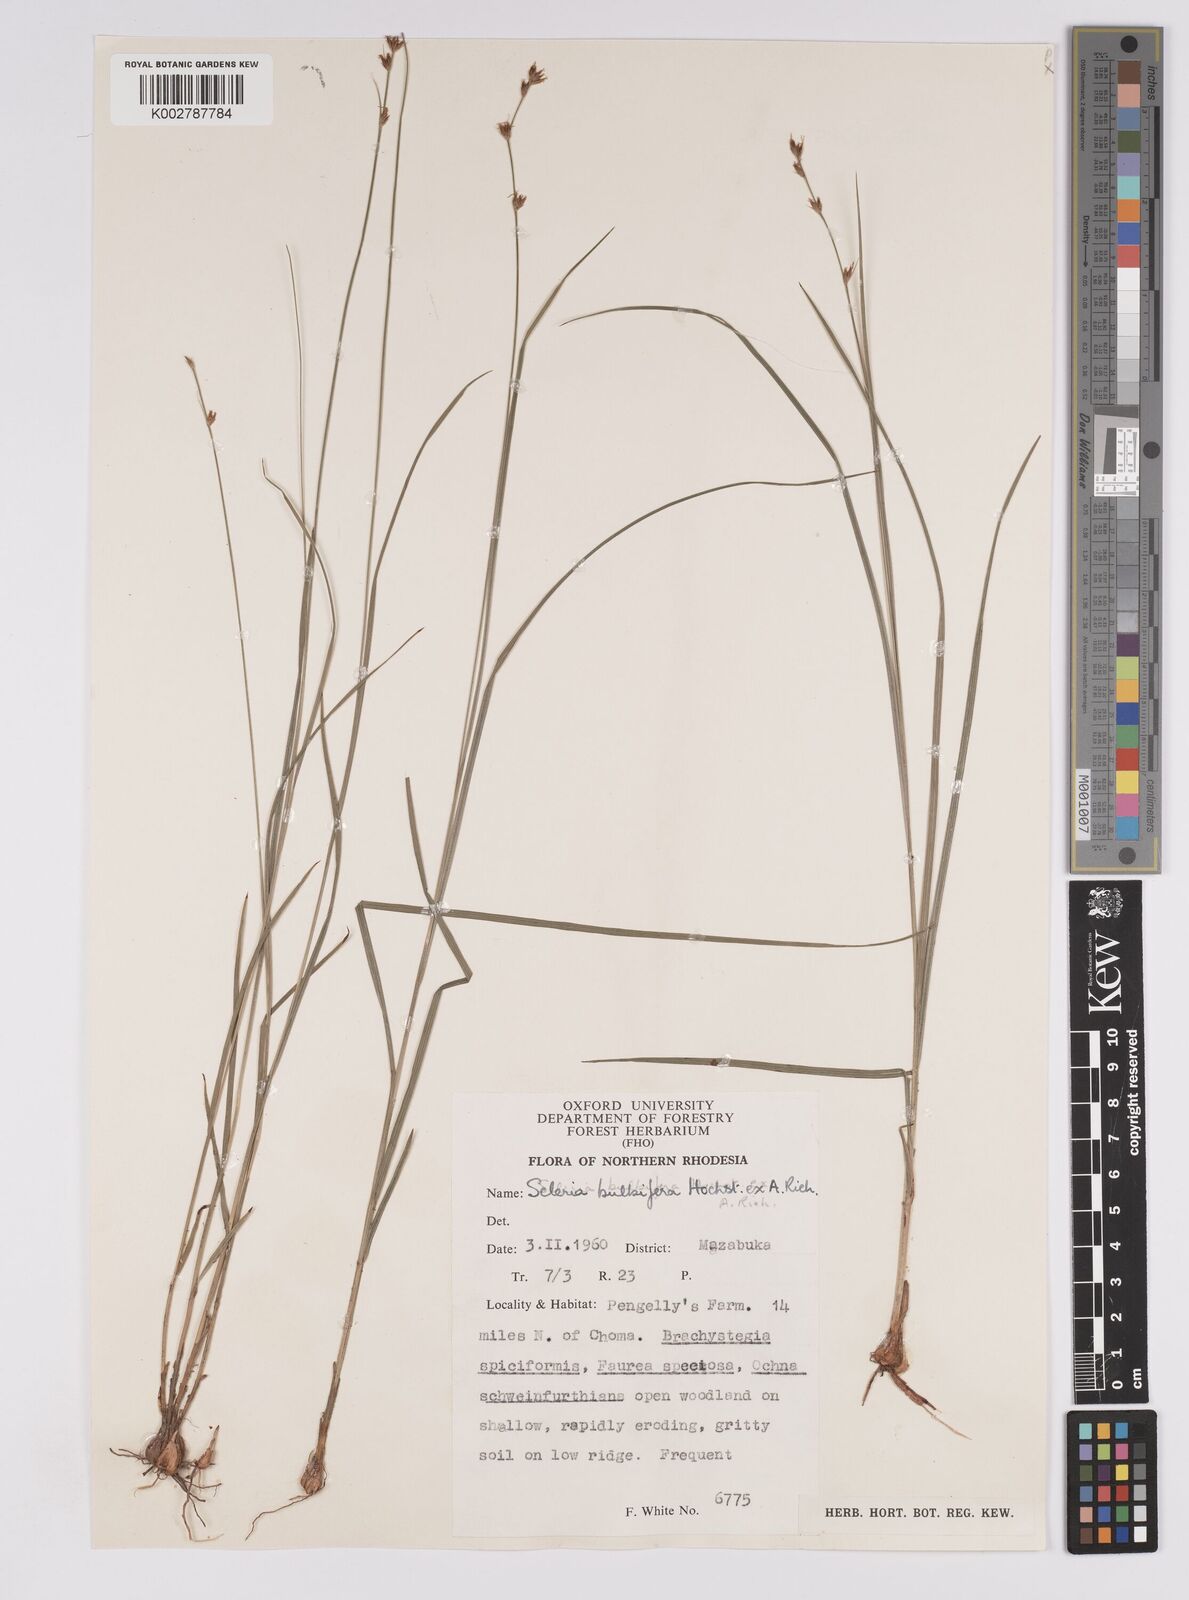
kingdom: Plantae
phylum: Tracheophyta
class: Liliopsida
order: Poales
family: Cyperaceae
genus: Scleria
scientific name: Scleria bulbifera
